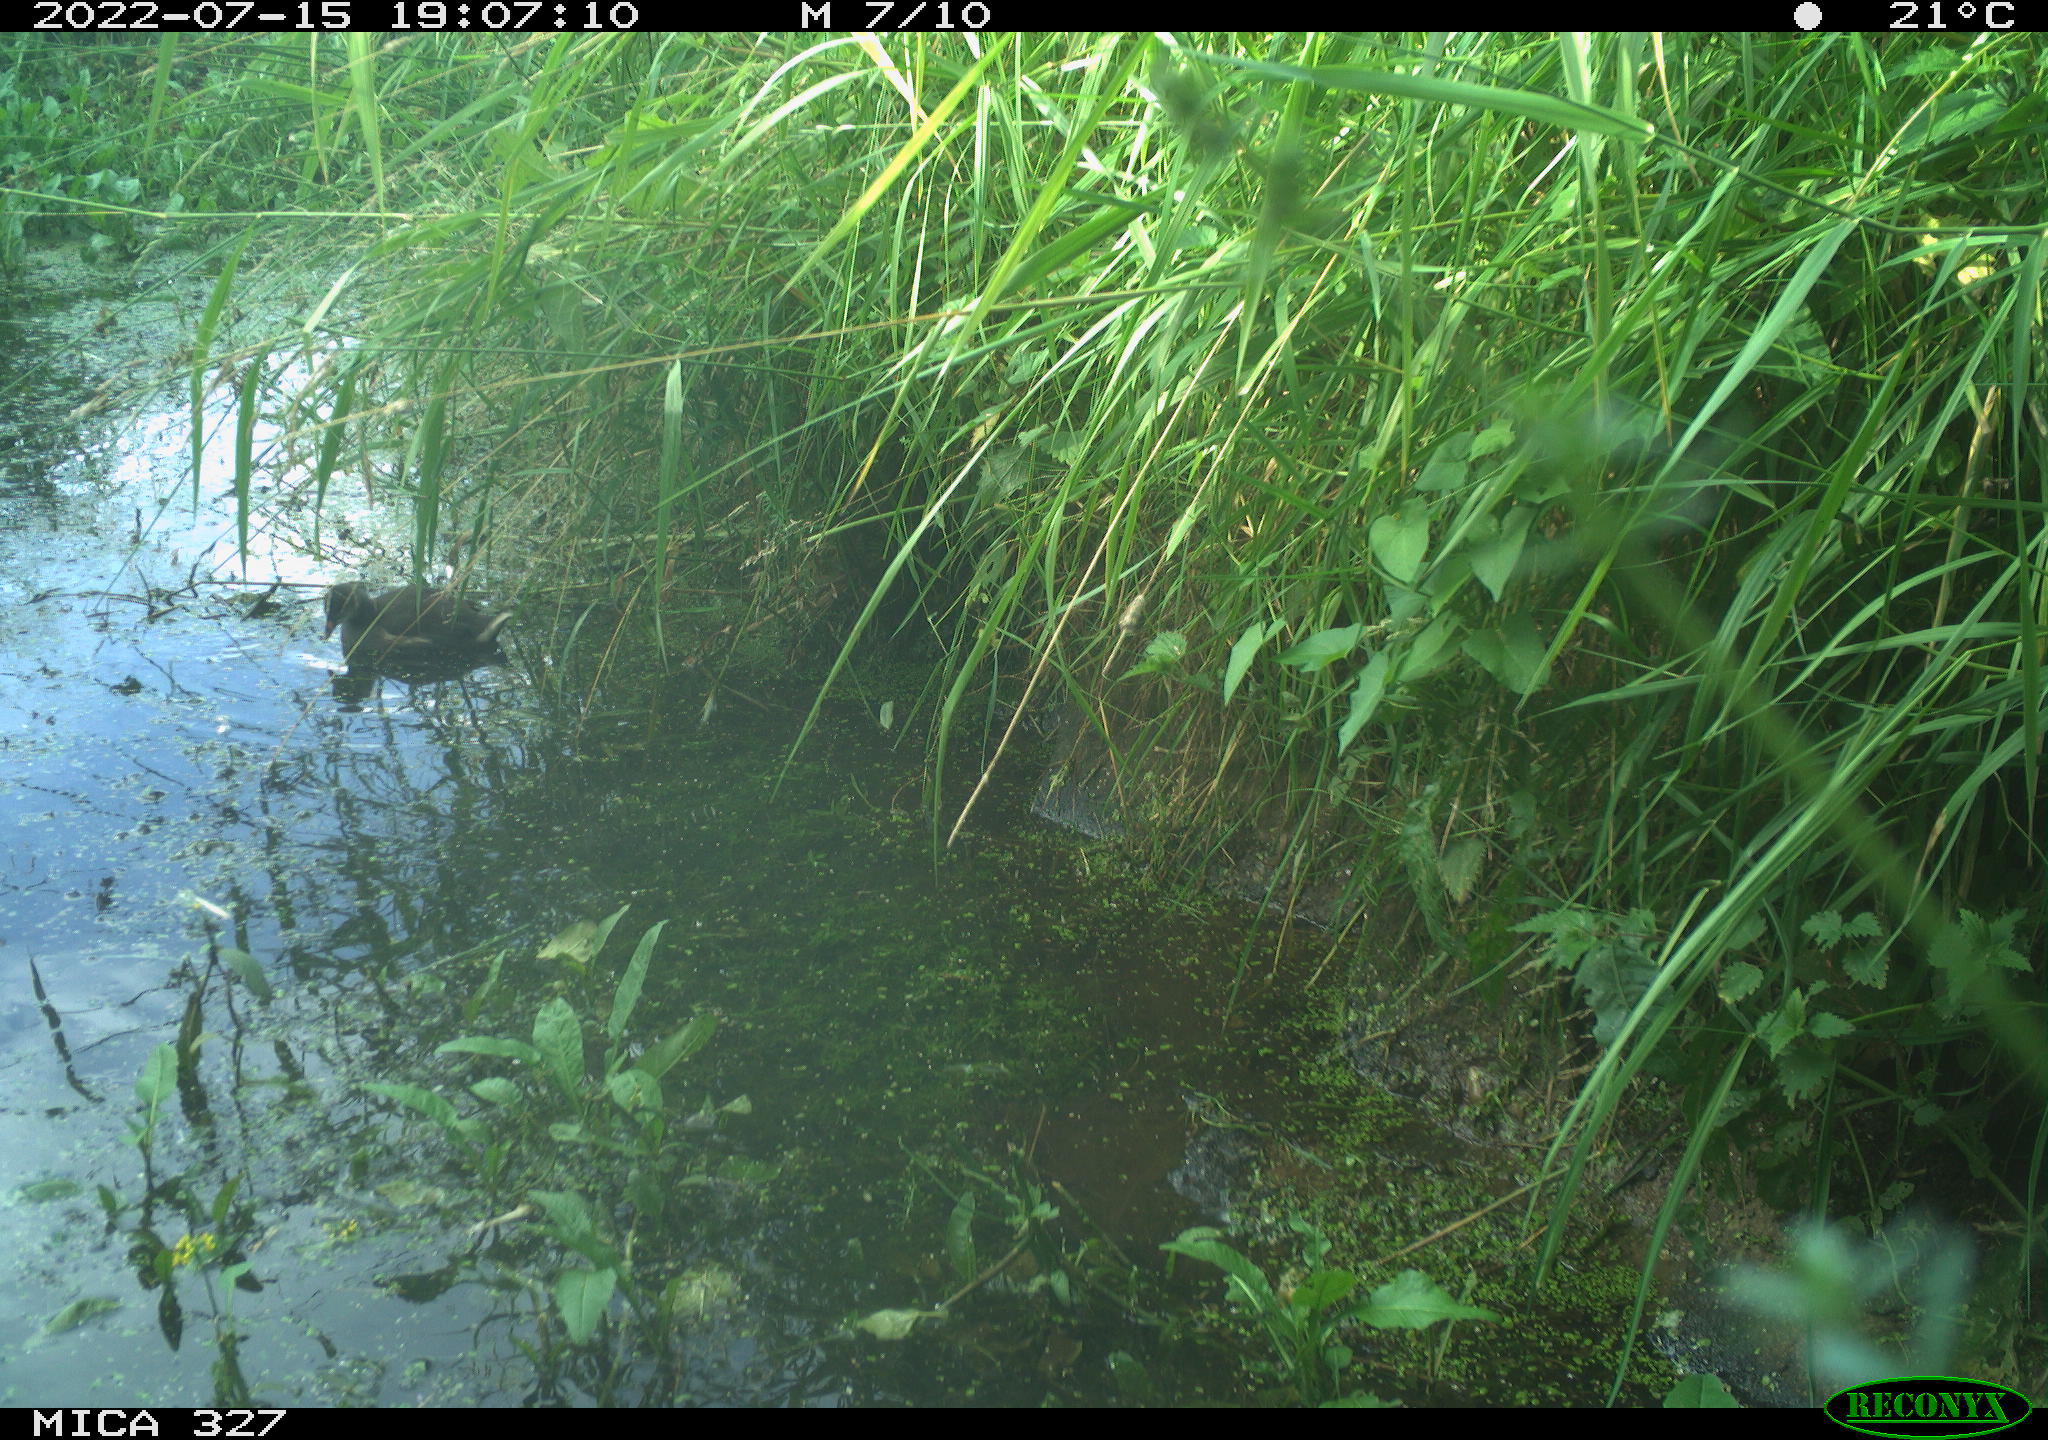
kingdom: Animalia
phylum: Chordata
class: Aves
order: Gruiformes
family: Rallidae
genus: Gallinula
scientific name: Gallinula chloropus
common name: Common moorhen
